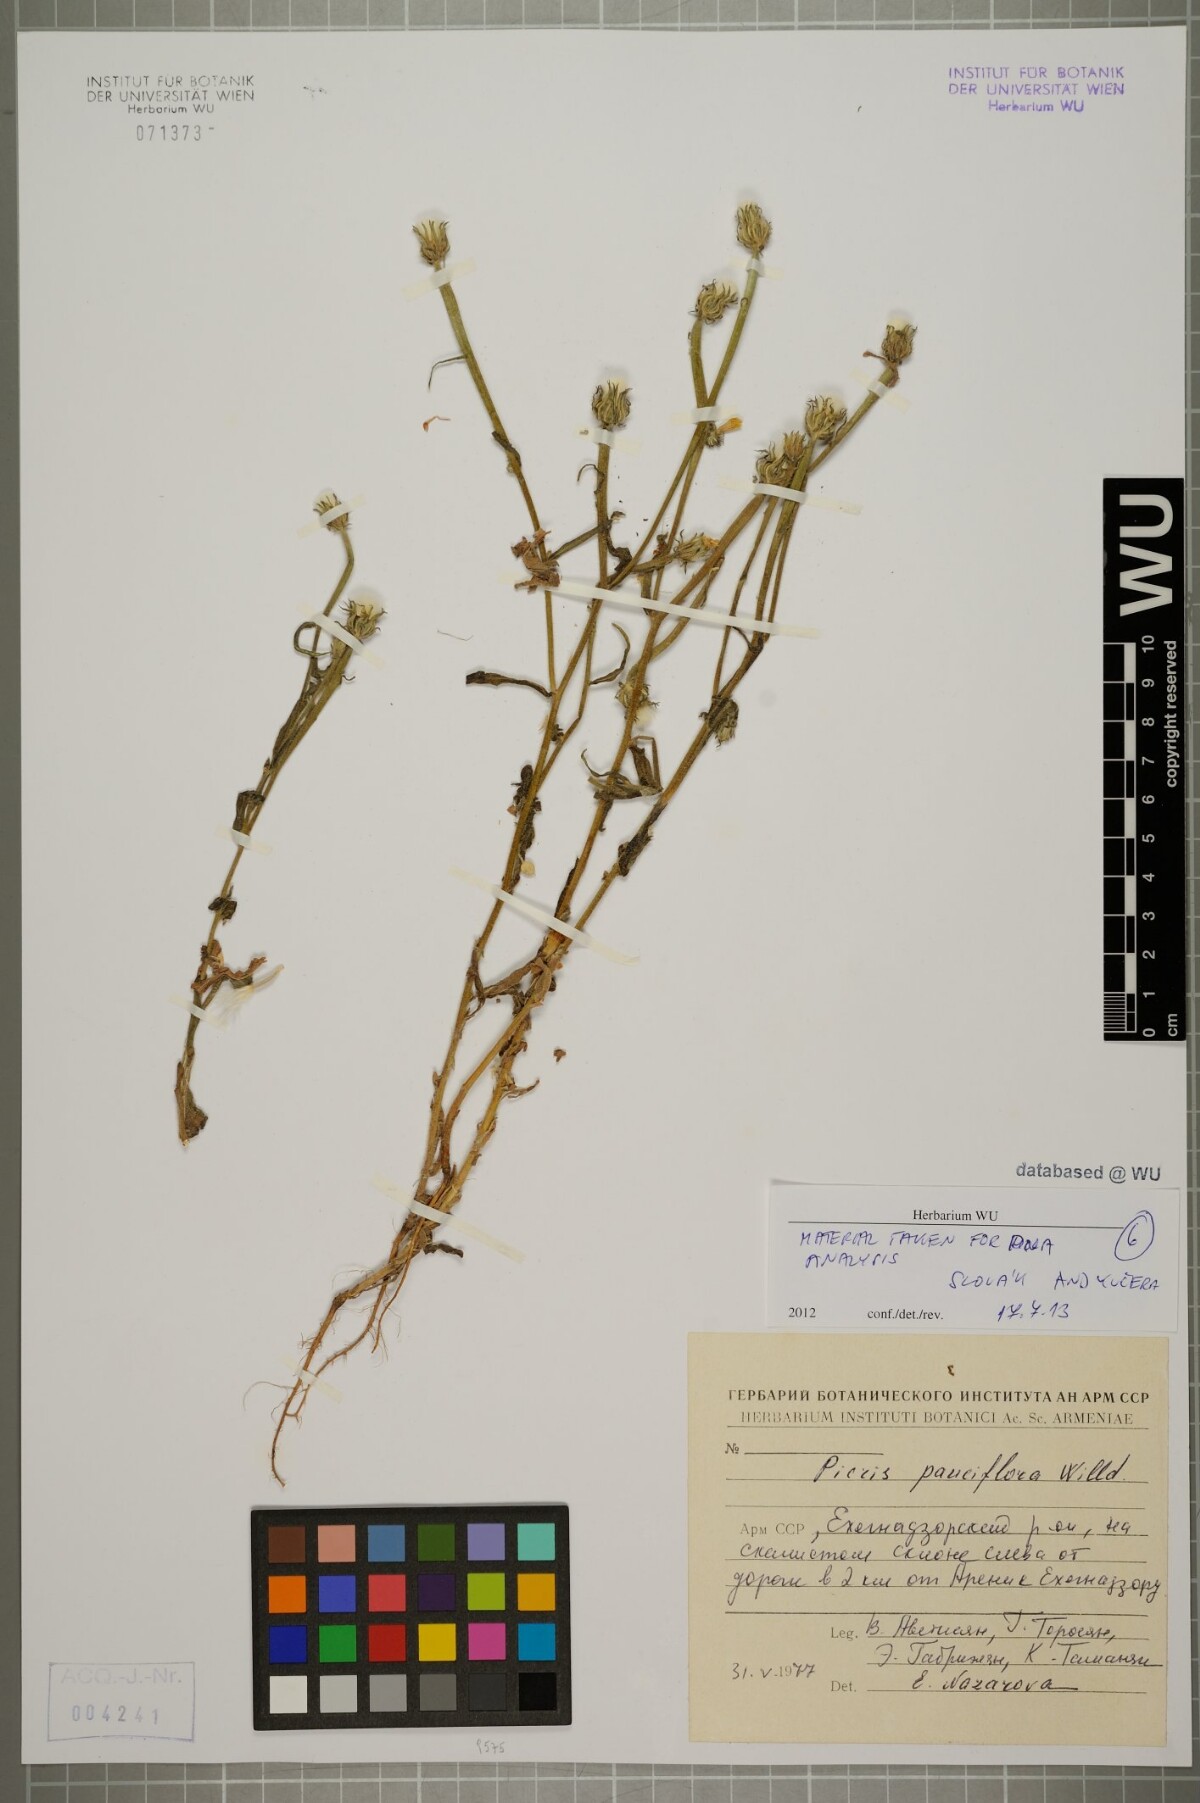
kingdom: Plantae
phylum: Tracheophyta
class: Magnoliopsida
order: Asterales
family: Asteraceae
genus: Picris
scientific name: Picris pauciflora
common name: Smallflower oxtongue
